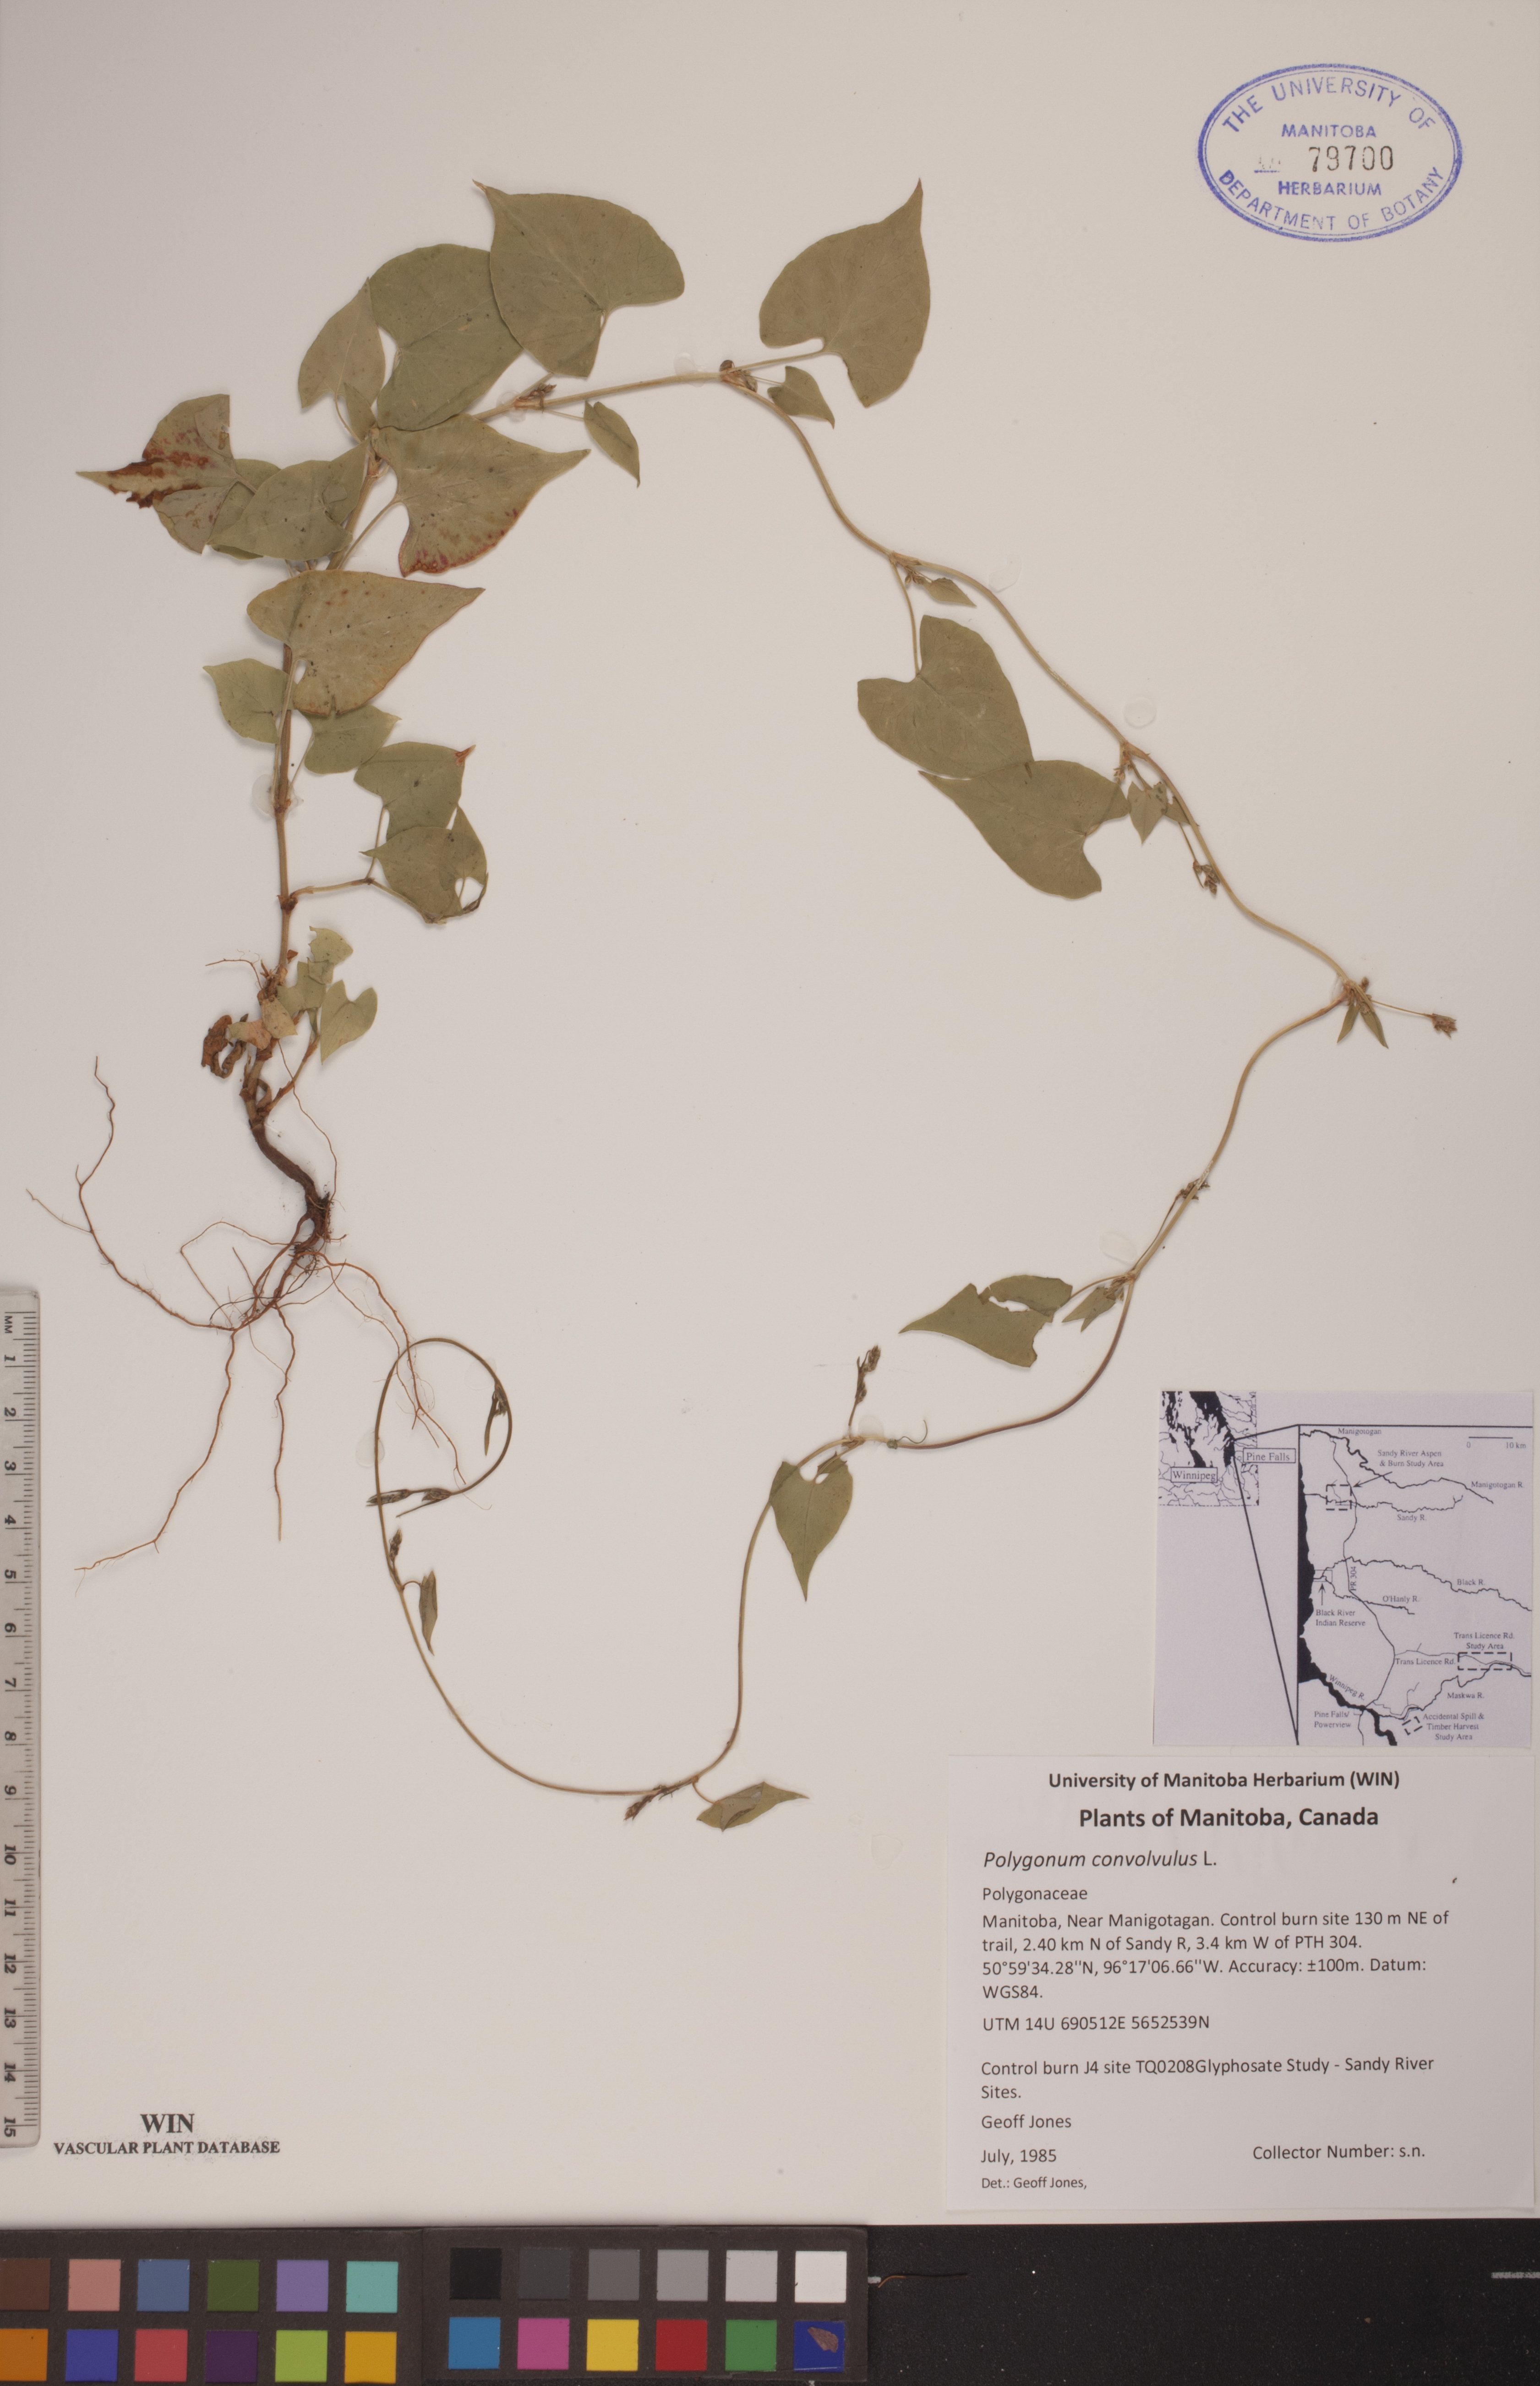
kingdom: Plantae
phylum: Tracheophyta
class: Magnoliopsida
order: Caryophyllales
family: Polygonaceae
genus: Fallopia
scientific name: Fallopia convolvulus
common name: Black bindweed
